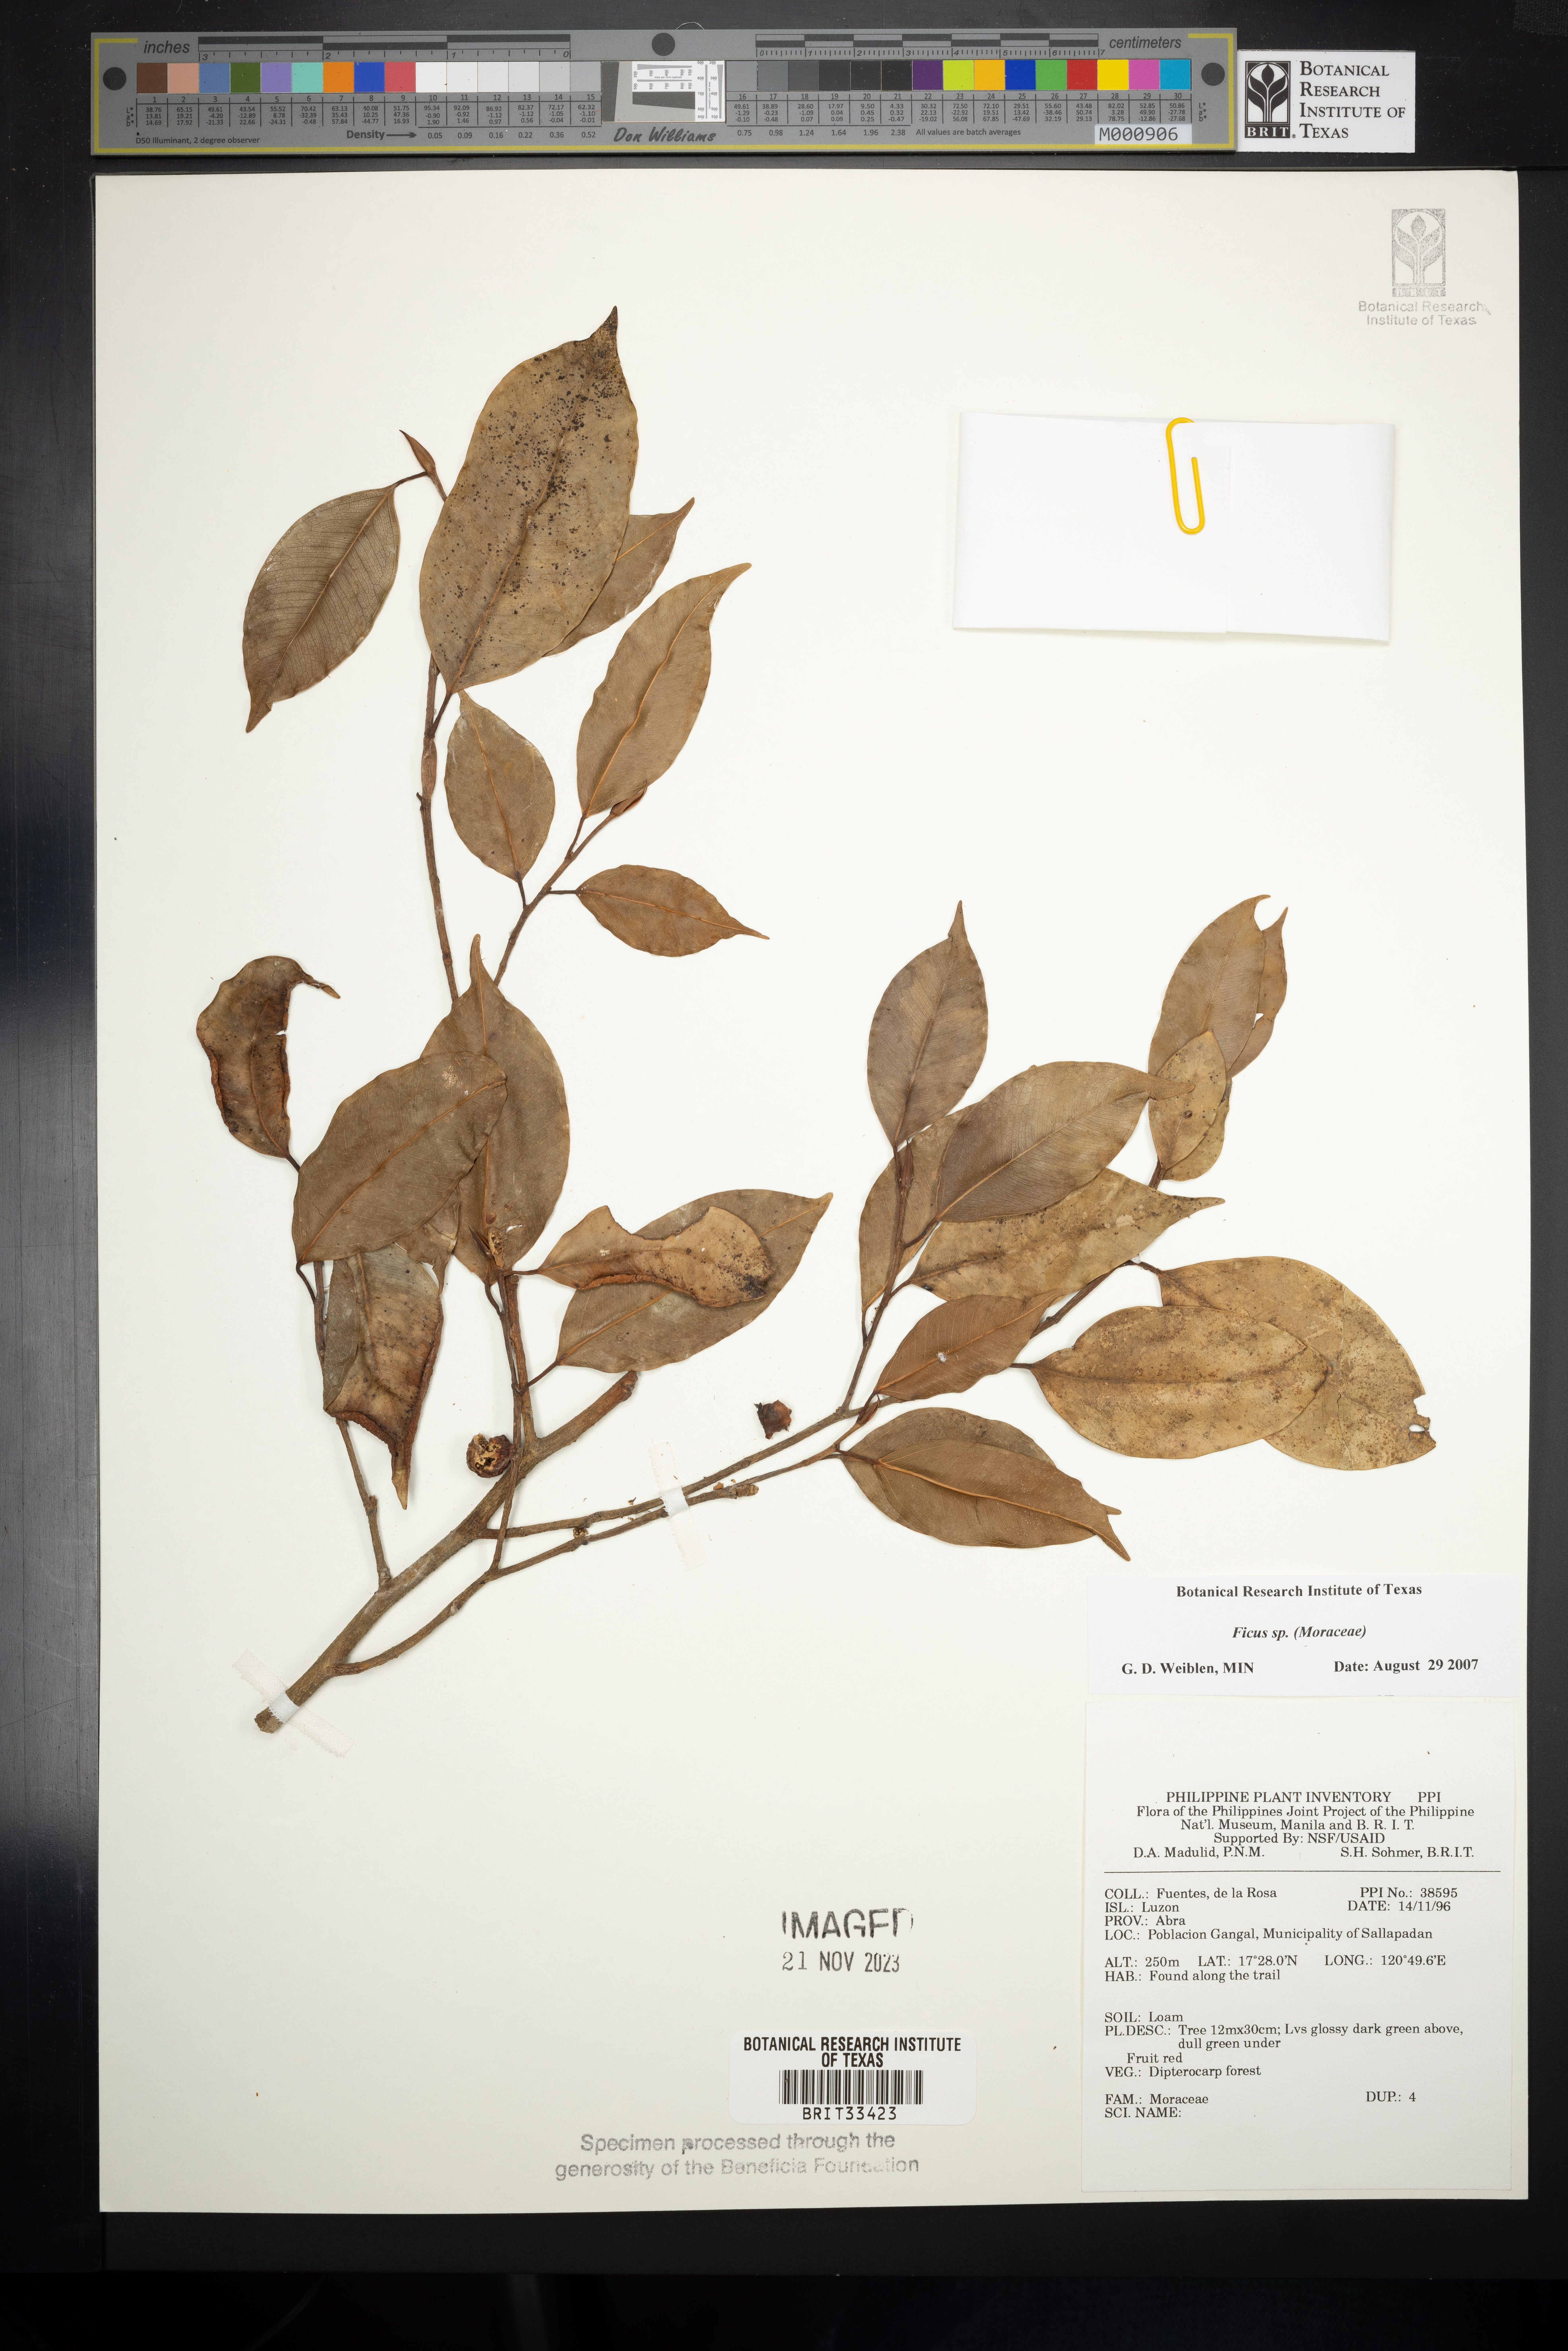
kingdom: Plantae
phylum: Tracheophyta
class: Magnoliopsida
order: Rosales
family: Moraceae
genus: Ficus
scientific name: Ficus
